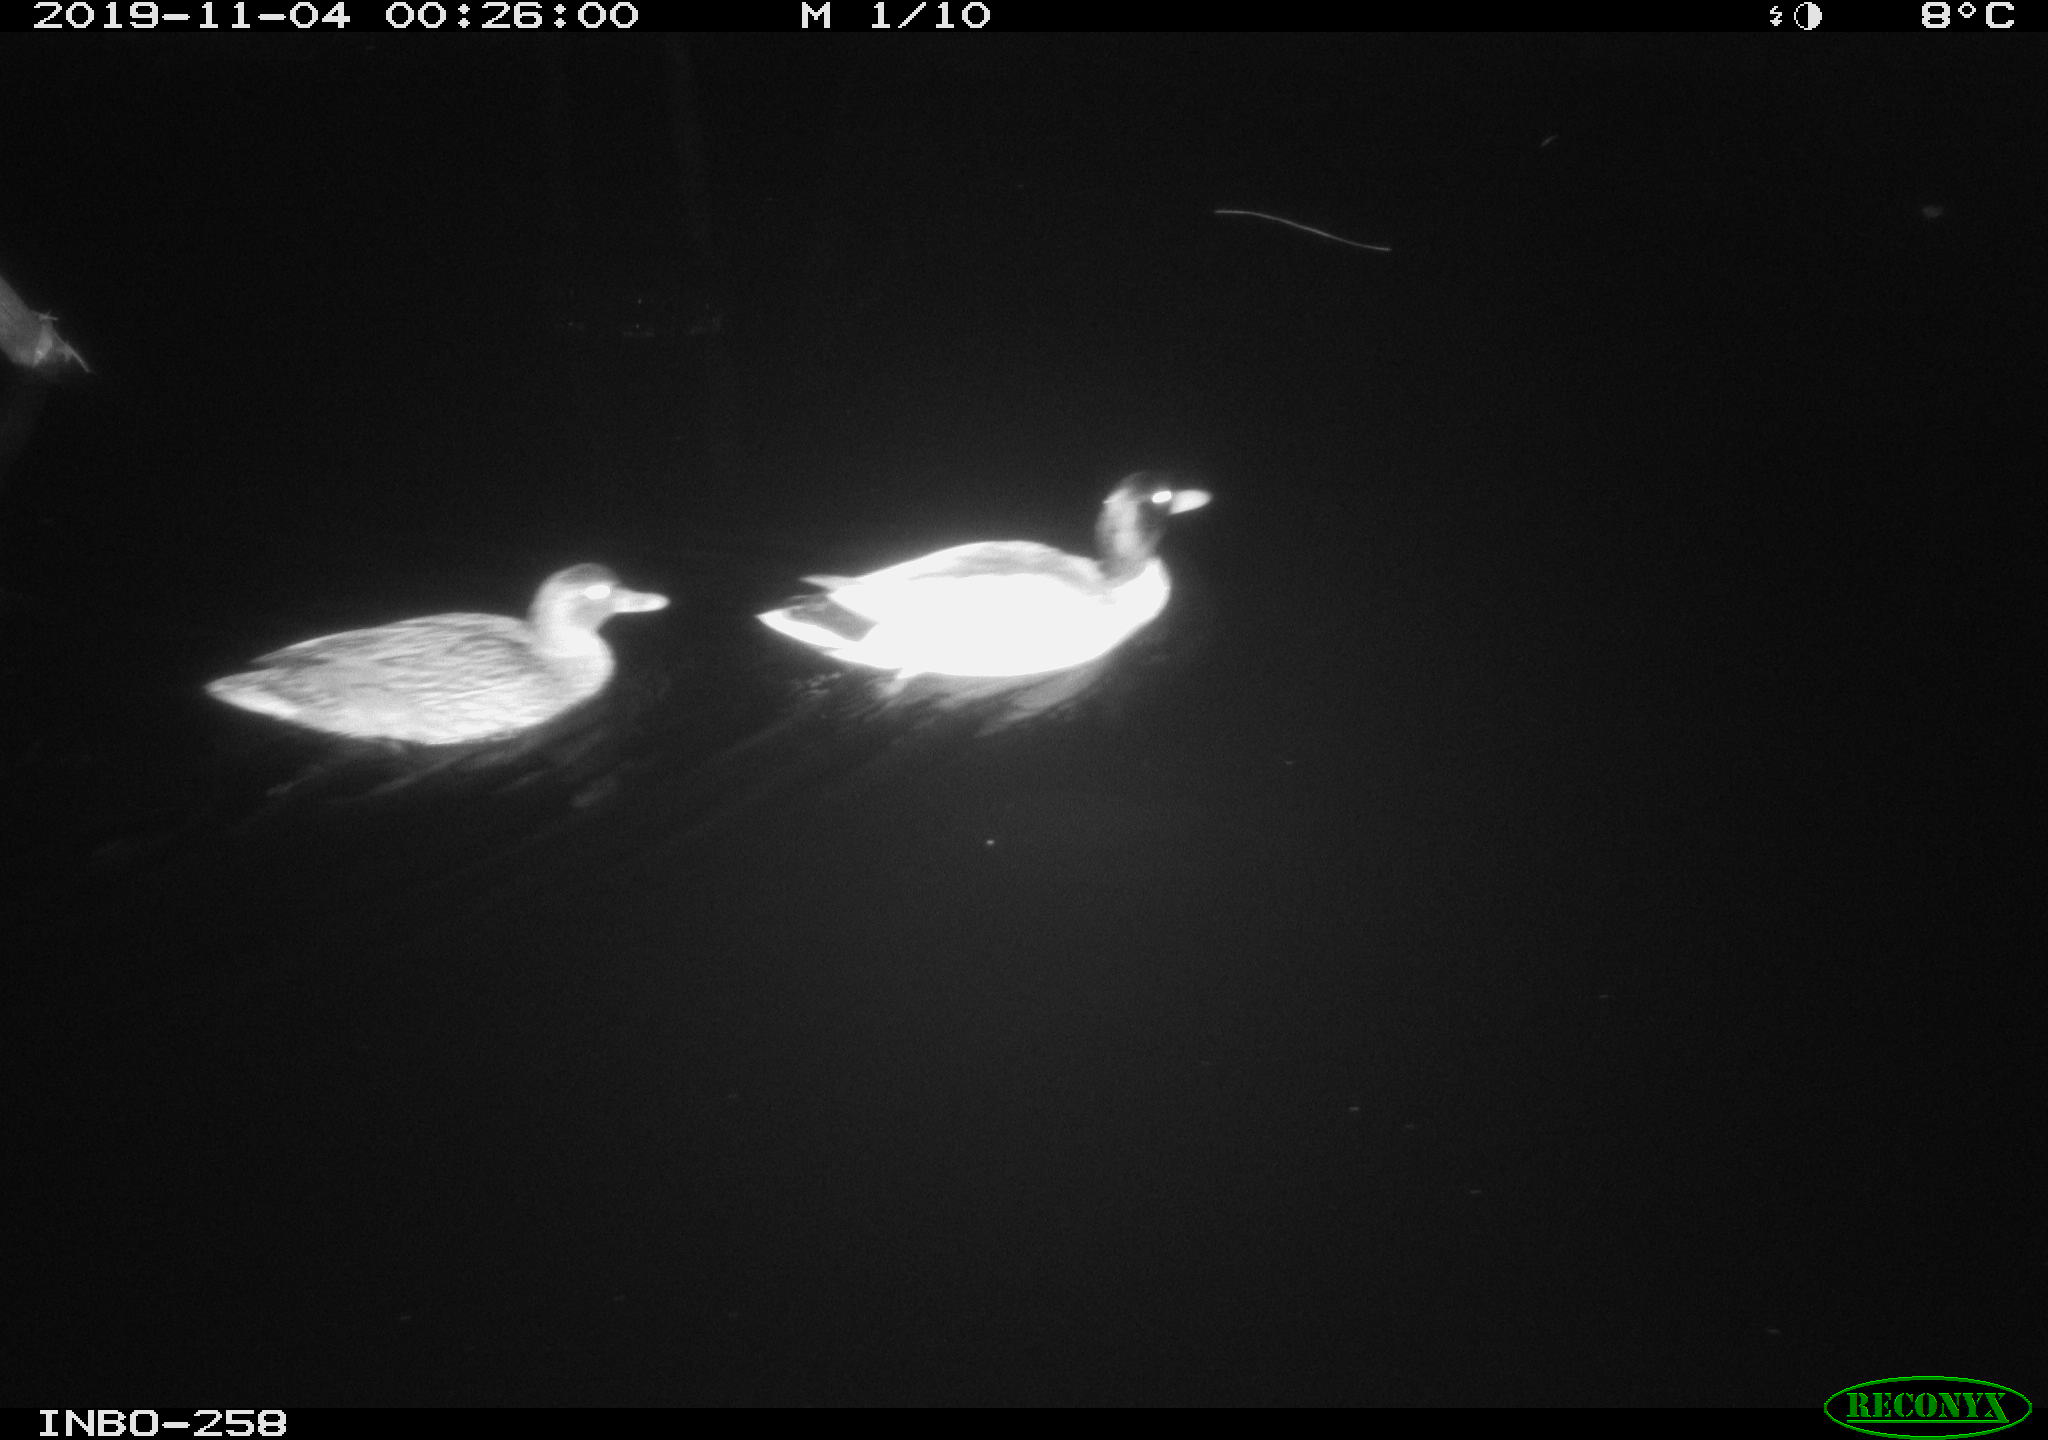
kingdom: Animalia
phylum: Chordata
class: Aves
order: Anseriformes
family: Anatidae
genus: Anas
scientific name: Anas platyrhynchos
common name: Mallard
